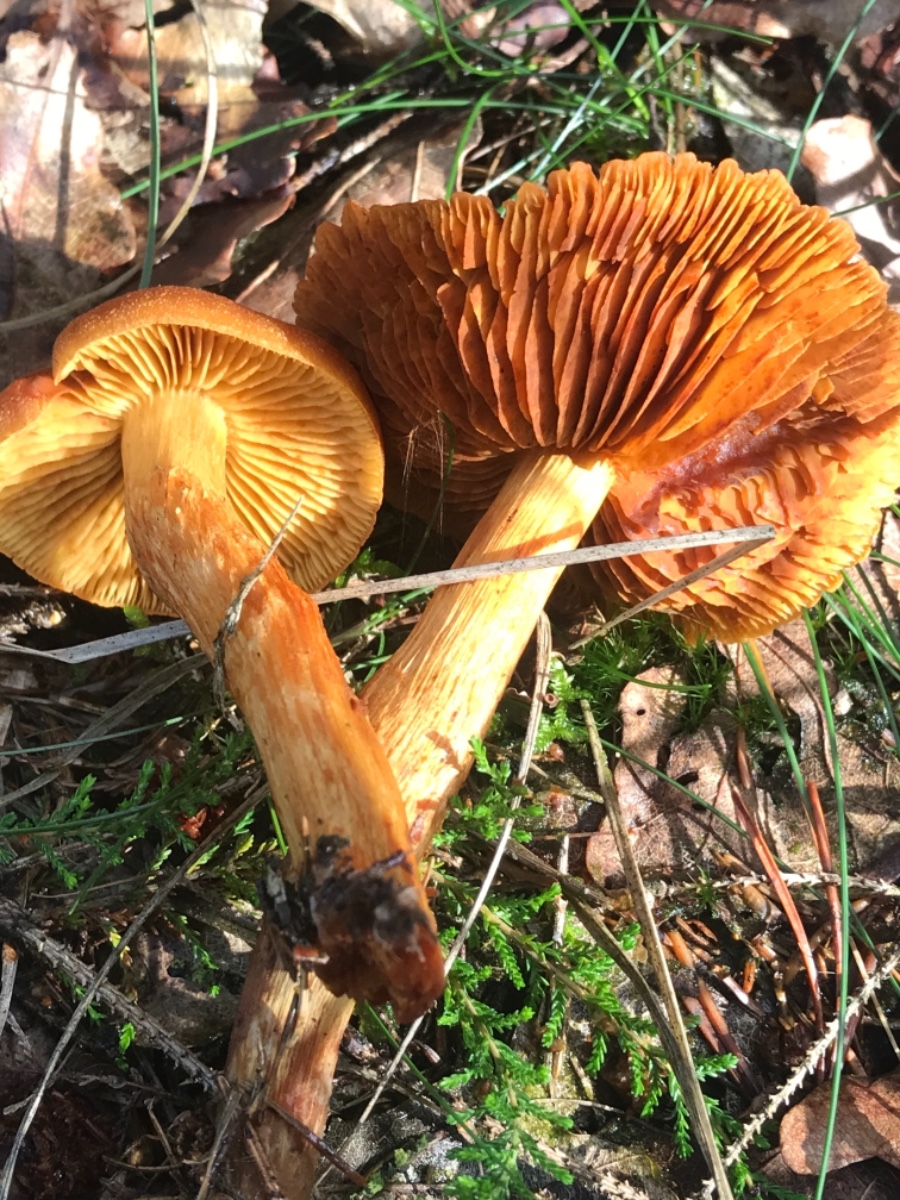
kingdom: Fungi
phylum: Basidiomycota
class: Agaricomycetes
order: Agaricales
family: Cortinariaceae
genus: Cortinarius
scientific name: Cortinarius
